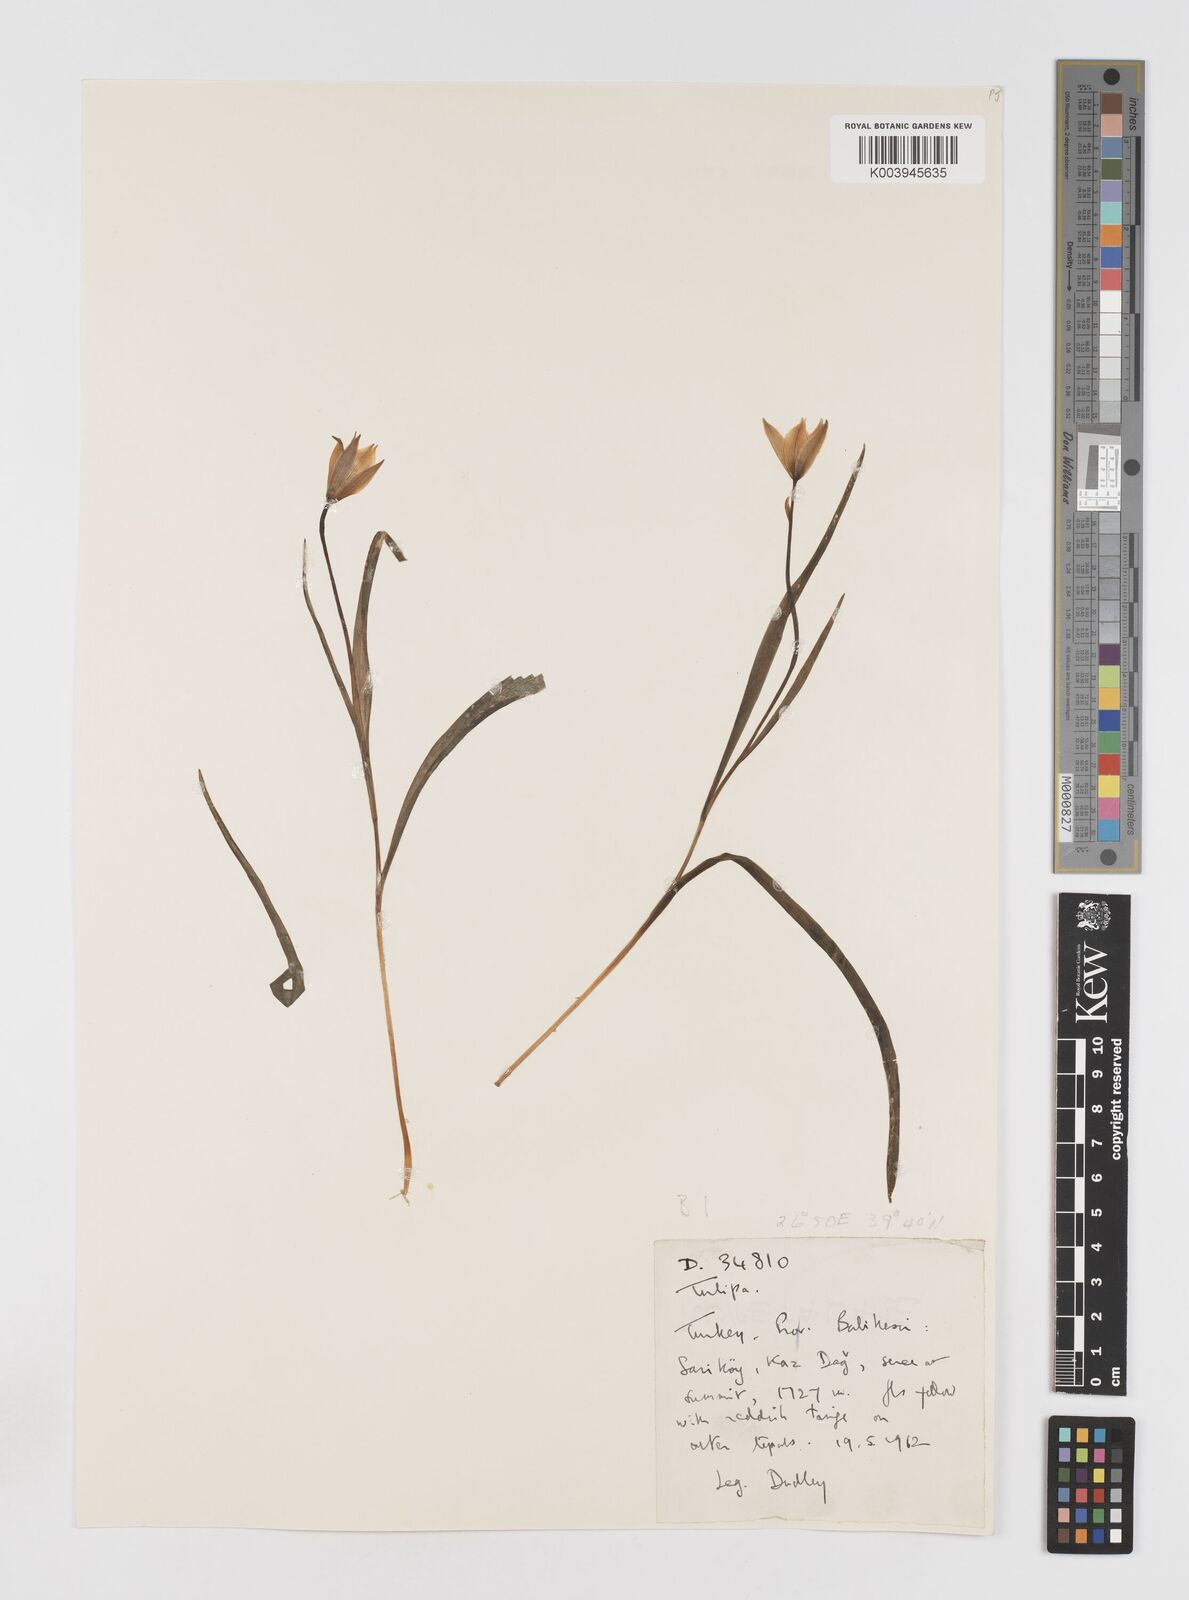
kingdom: Plantae
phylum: Tracheophyta
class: Liliopsida
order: Liliales
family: Liliaceae
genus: Tulipa
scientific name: Tulipa sylvestris
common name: Wild tulip
